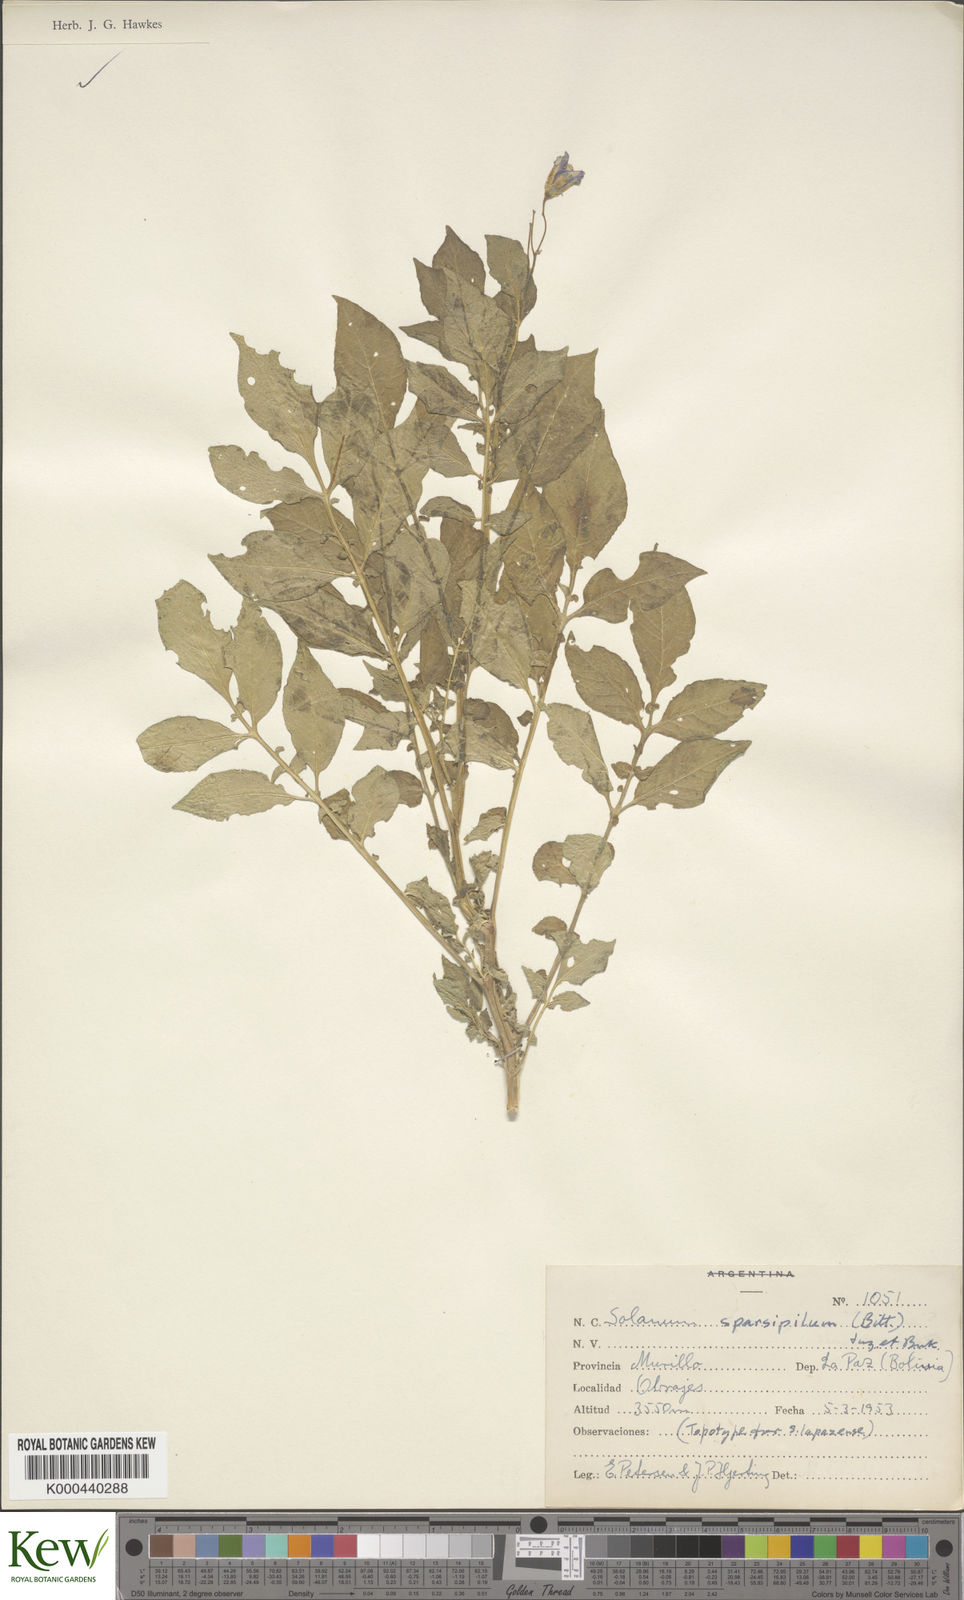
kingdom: Plantae
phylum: Tracheophyta
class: Magnoliopsida
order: Solanales
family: Solanaceae
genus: Solanum
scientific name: Solanum brevicaule
